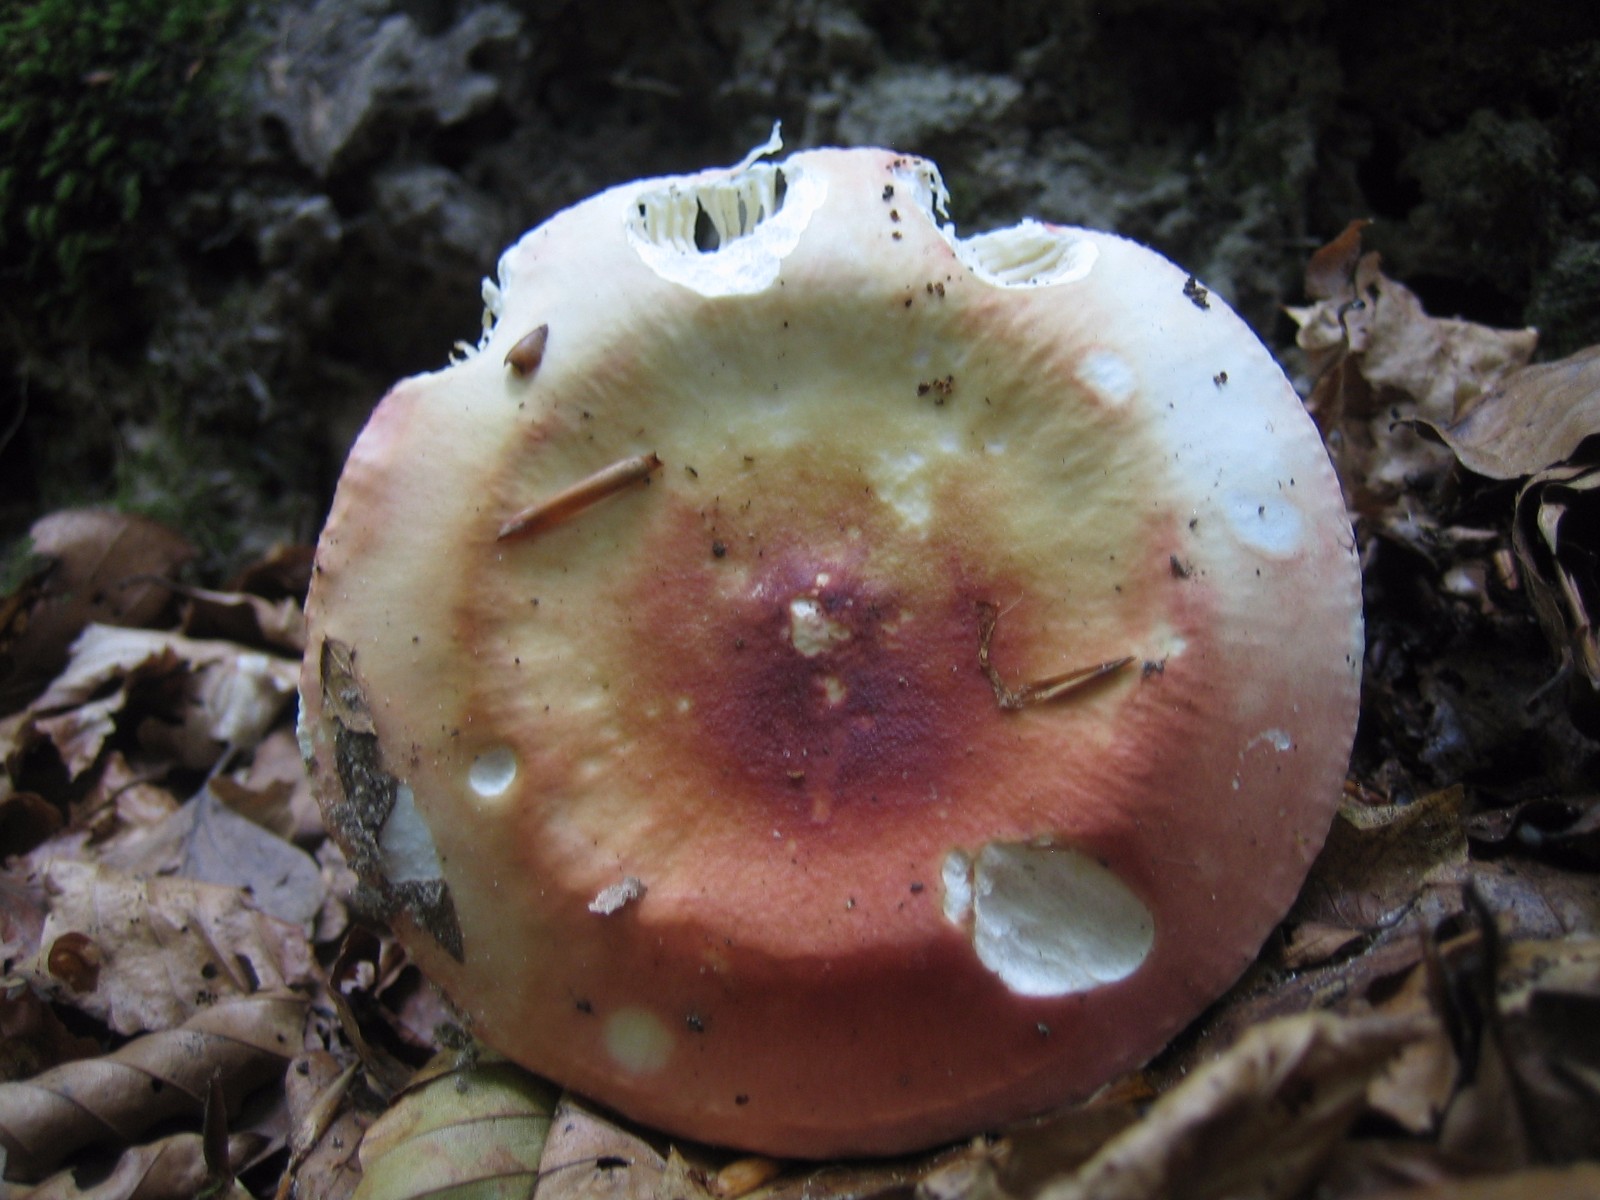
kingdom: Fungi
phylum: Basidiomycota
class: Agaricomycetes
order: Russulales
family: Russulaceae
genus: Russula
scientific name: Russula aurora
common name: rosa skørhat
